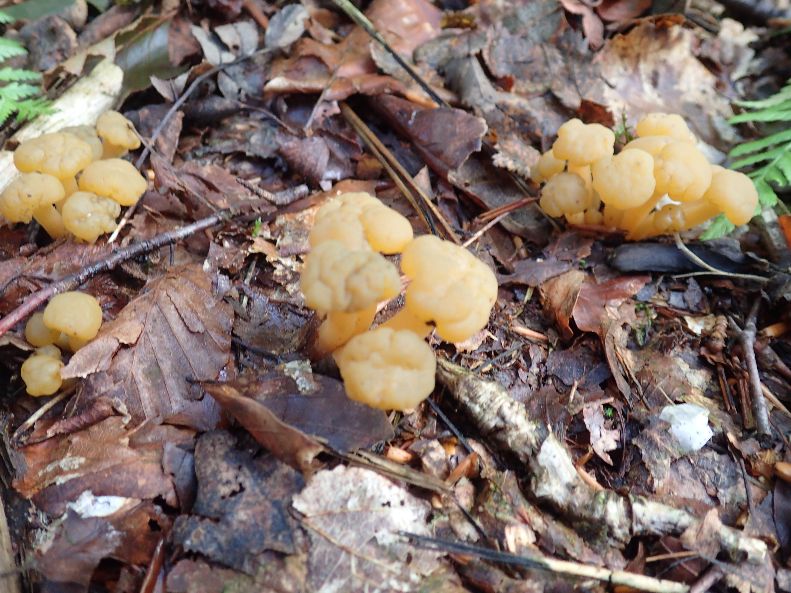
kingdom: Fungi
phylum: Ascomycota
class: Leotiomycetes
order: Leotiales
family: Leotiaceae
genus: Leotia
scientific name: Leotia lubrica
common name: ravsvamp
